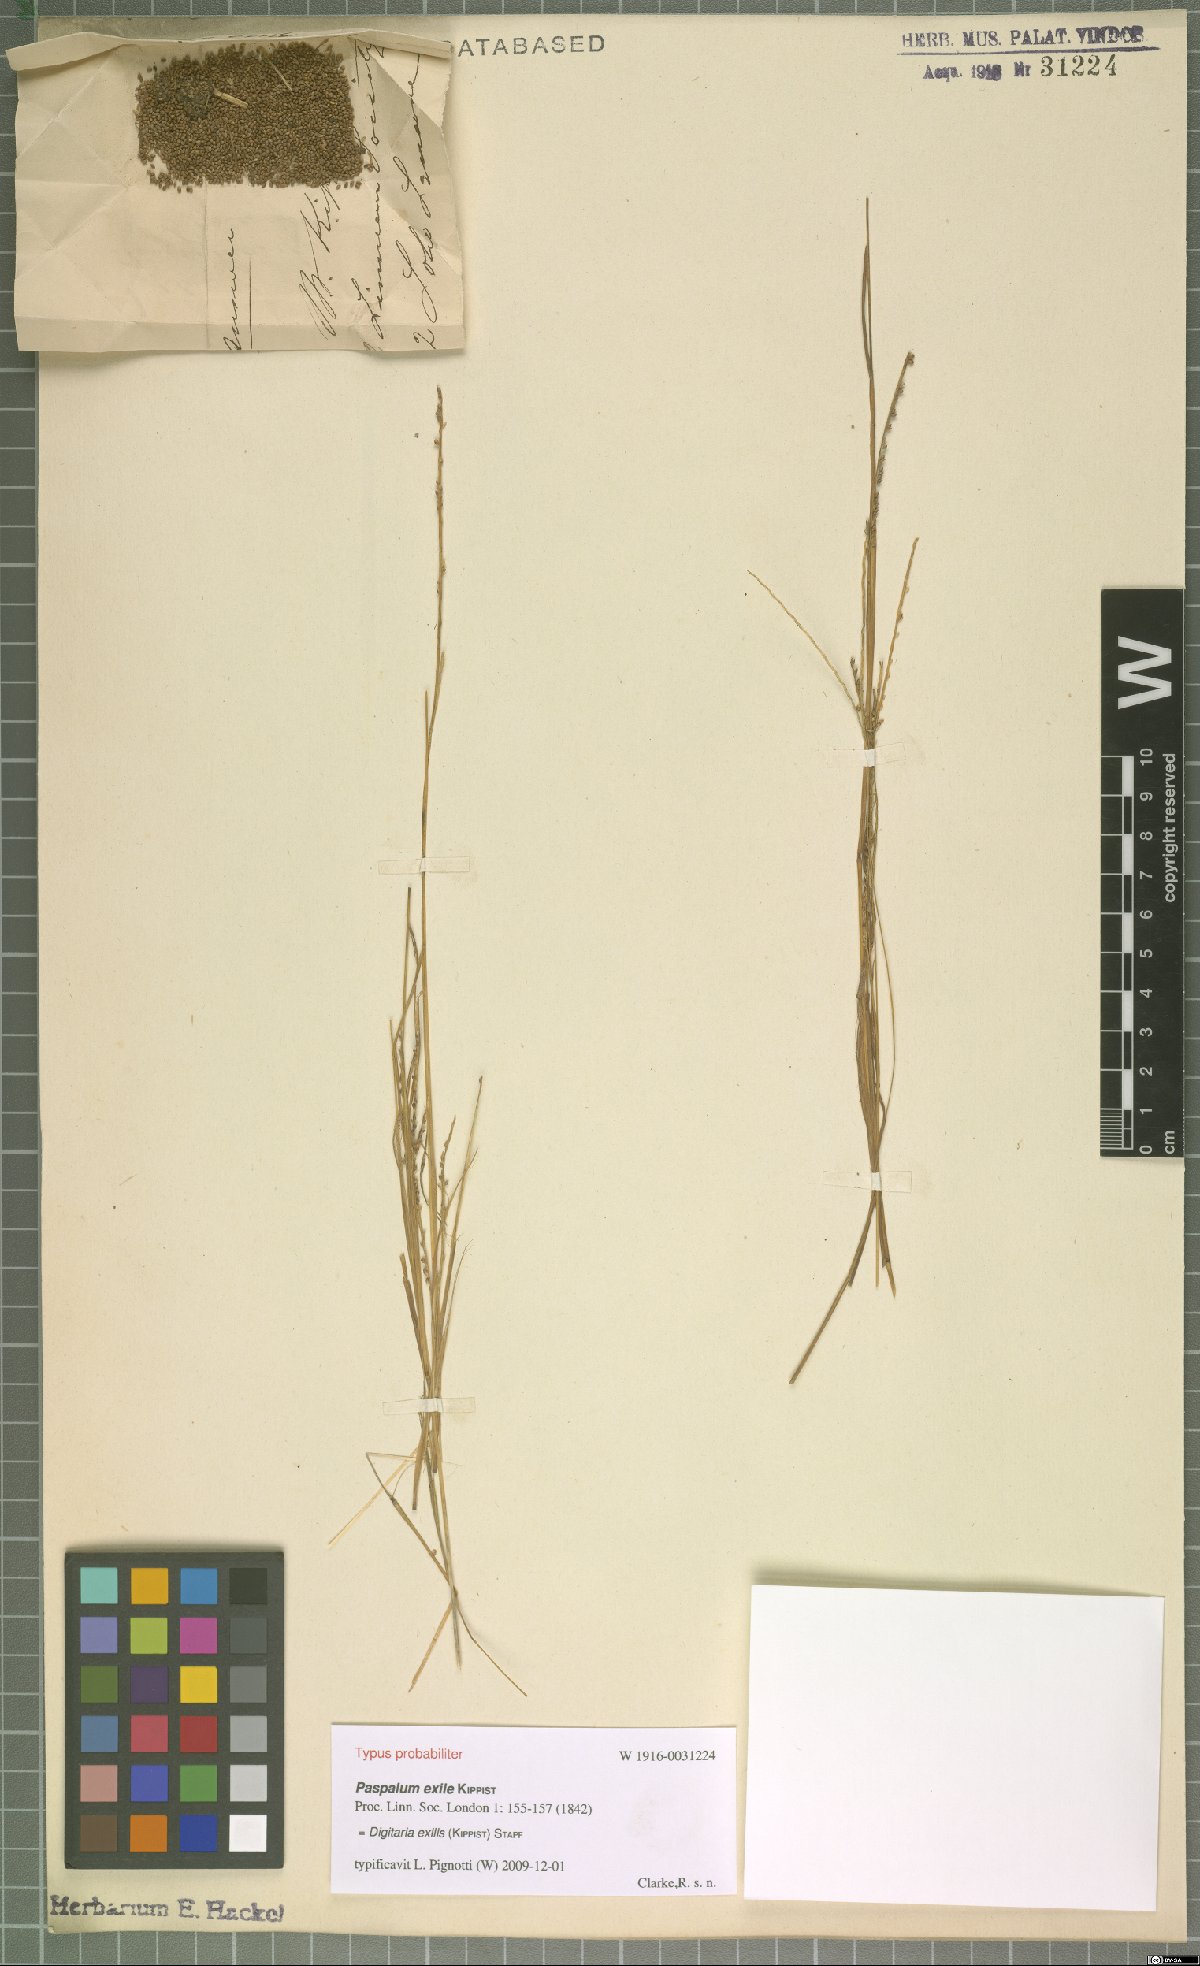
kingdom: Plantae
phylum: Tracheophyta
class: Liliopsida
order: Poales
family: Poaceae
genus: Digitaria
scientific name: Digitaria exilis
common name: Fonio millet
